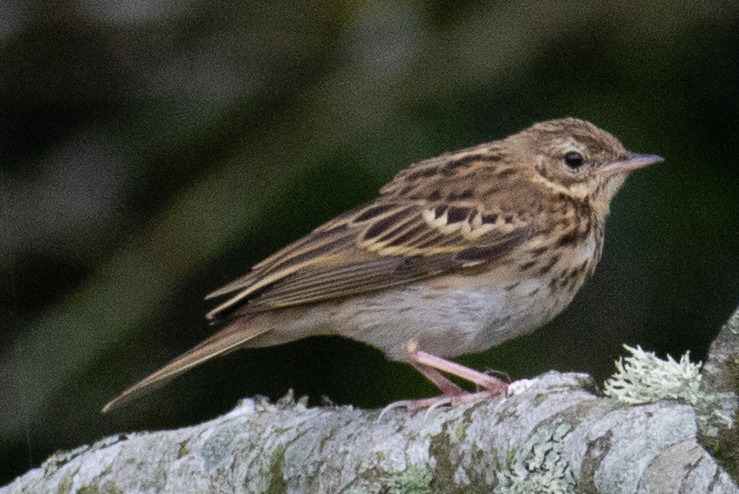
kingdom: Animalia
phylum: Chordata
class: Aves
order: Passeriformes
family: Motacillidae
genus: Anthus
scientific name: Anthus trivialis
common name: Skovpiber
